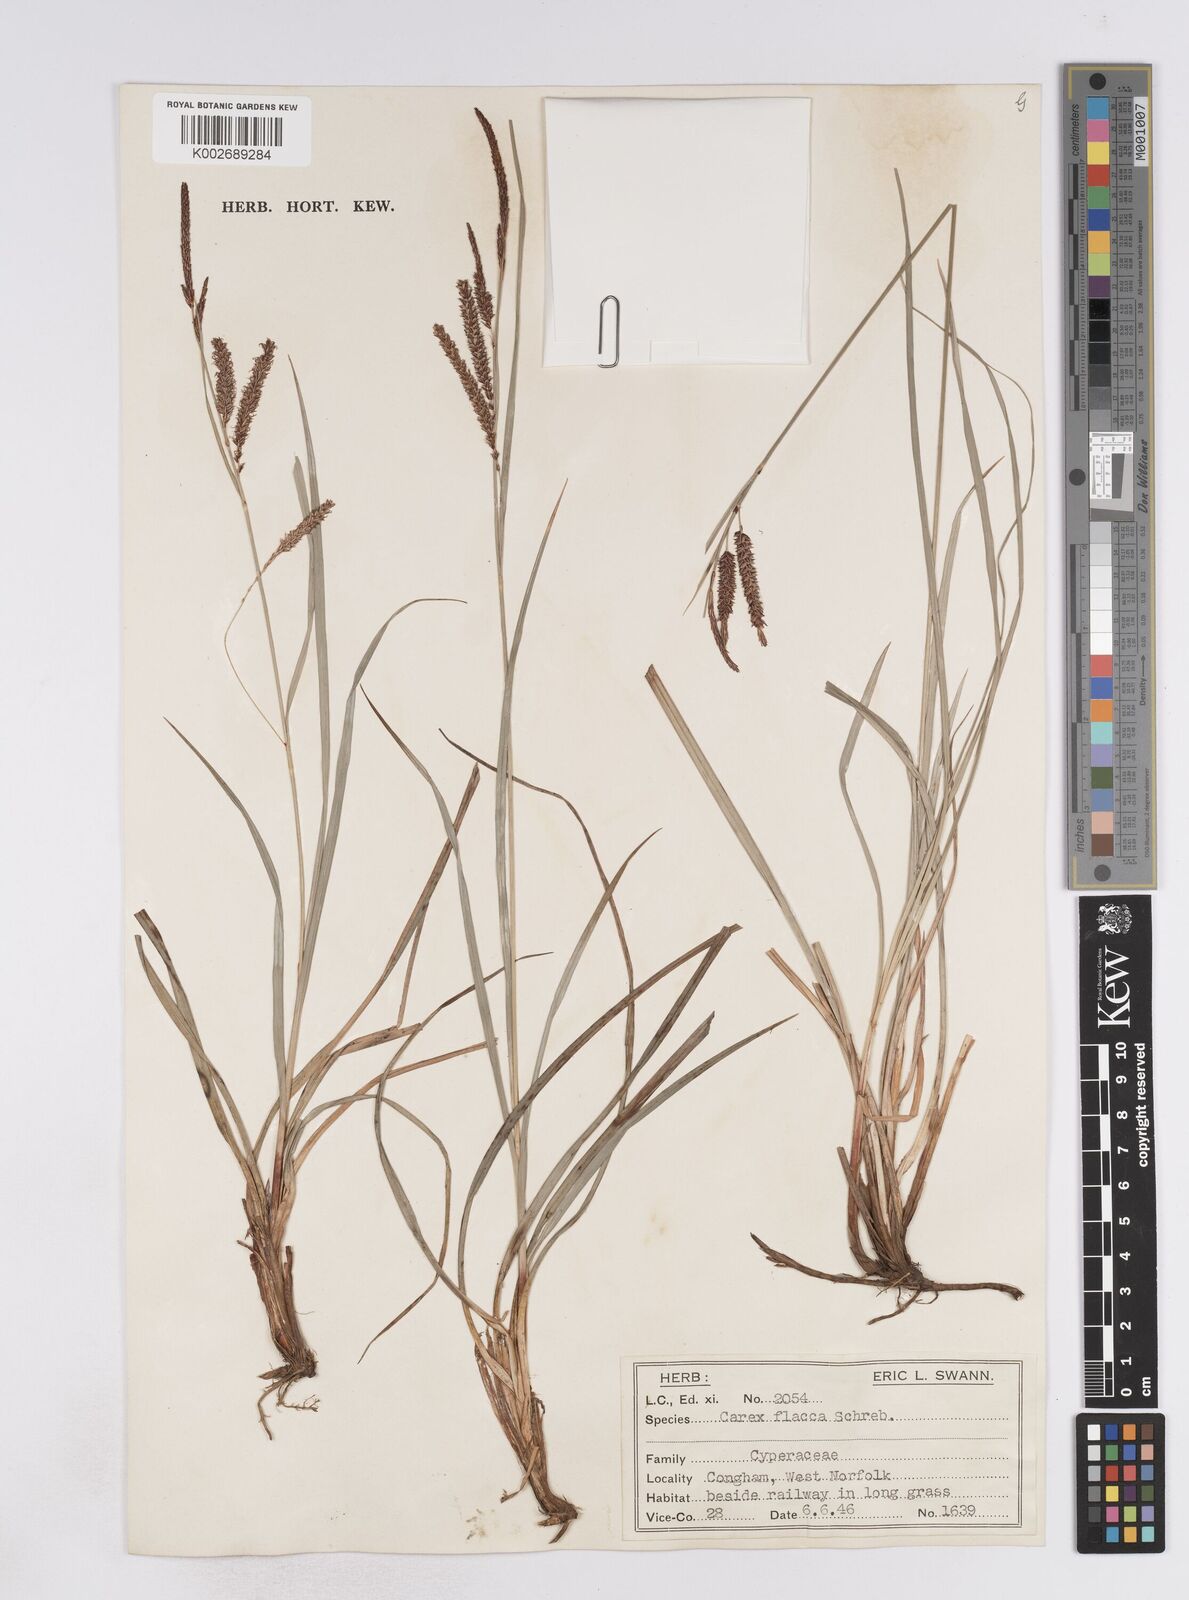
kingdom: Plantae
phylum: Tracheophyta
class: Liliopsida
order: Poales
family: Cyperaceae
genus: Carex
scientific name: Carex flacca
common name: Glaucous sedge
